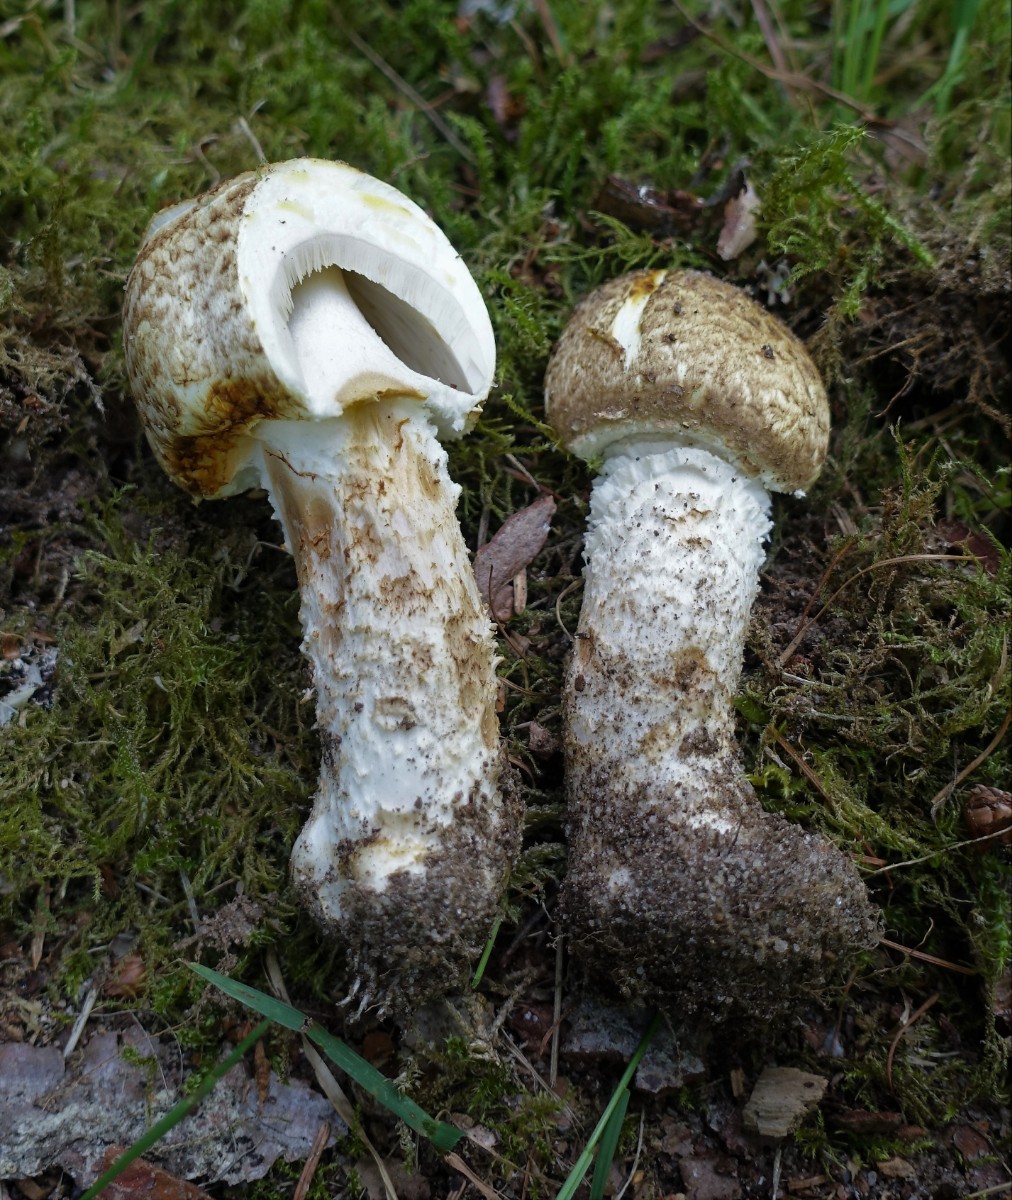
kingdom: Fungi
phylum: Basidiomycota
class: Agaricomycetes
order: Agaricales
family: Agaricaceae
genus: Agaricus
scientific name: Agaricus augustus
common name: prægtig champignon
